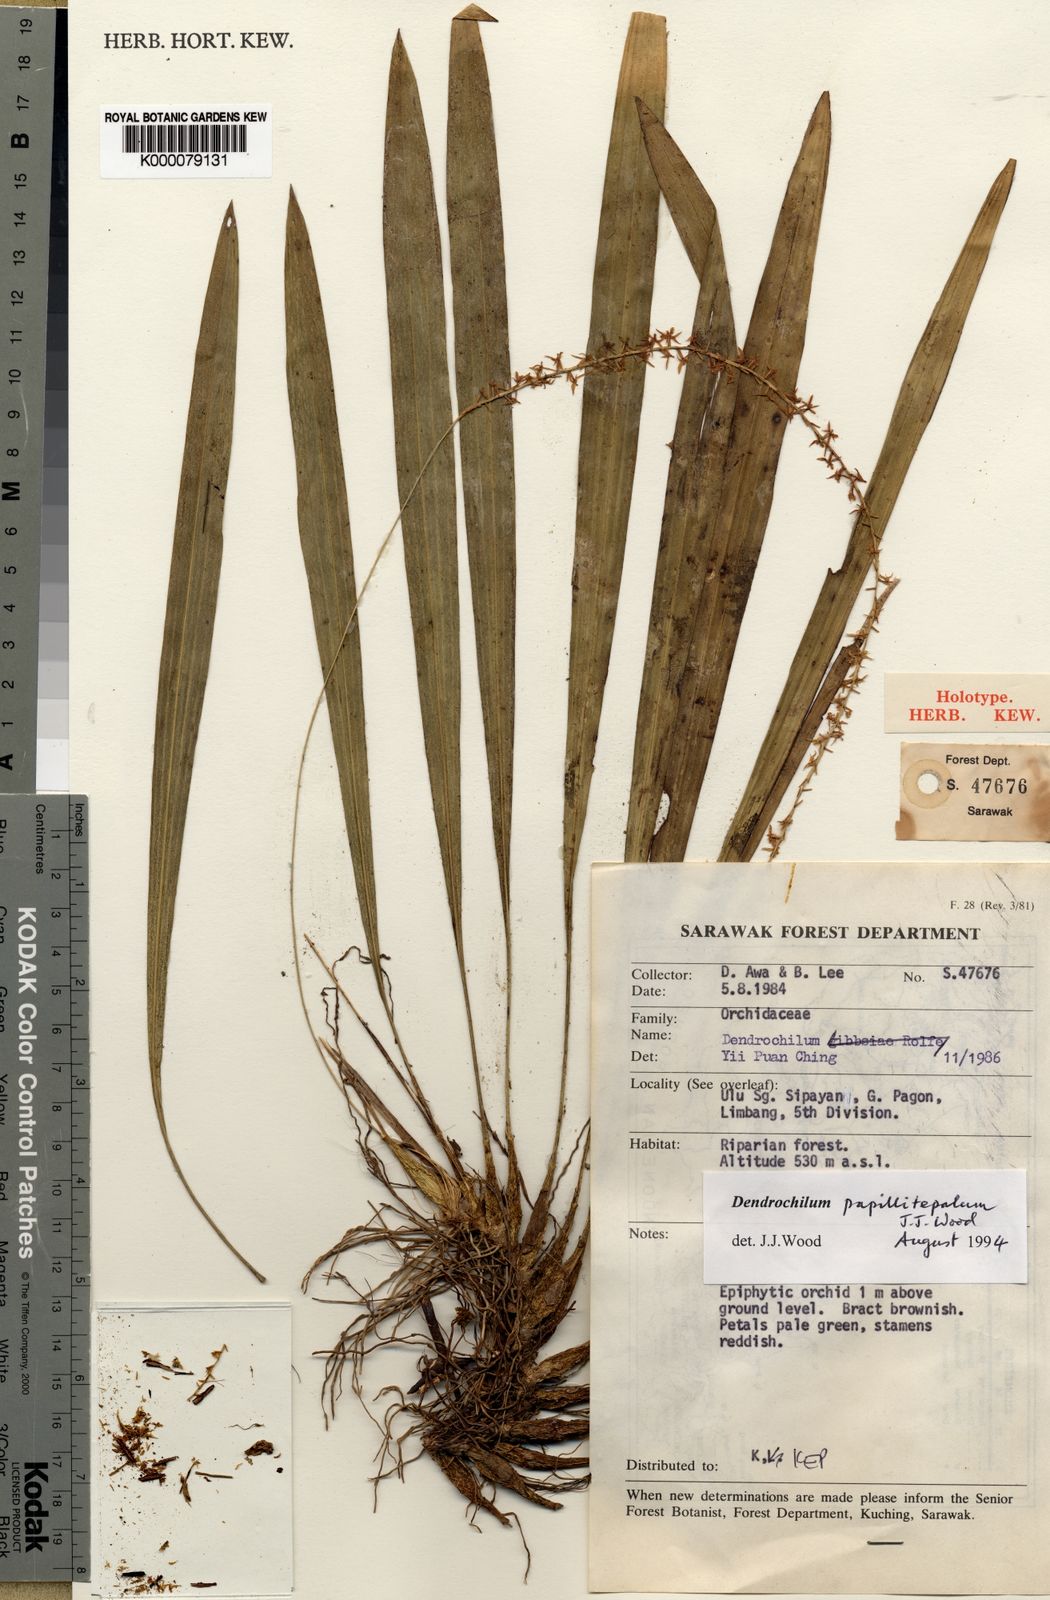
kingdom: Plantae
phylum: Tracheophyta
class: Liliopsida
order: Asparagales
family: Orchidaceae
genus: Coelogyne
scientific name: Coelogyne papillitepala
